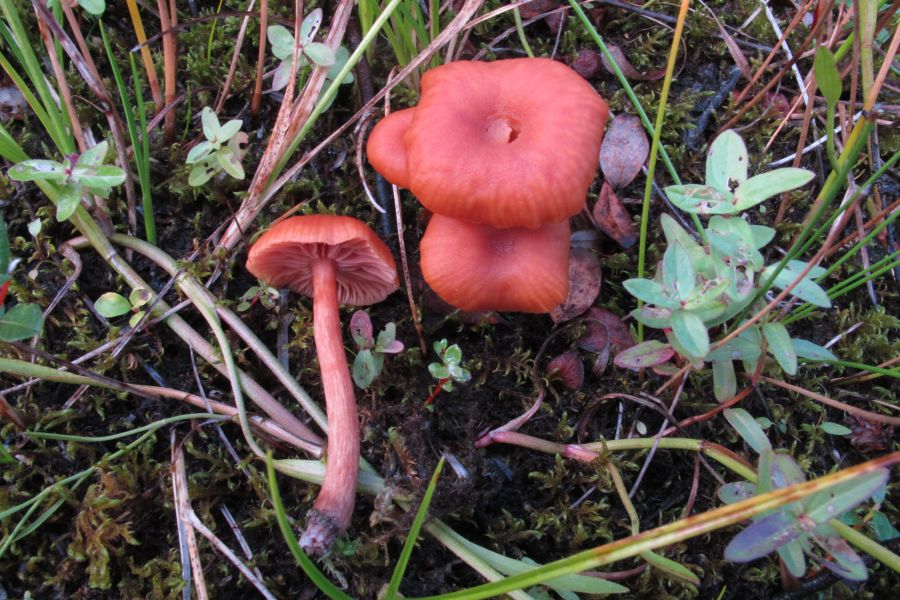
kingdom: Fungi
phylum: Basidiomycota
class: Agaricomycetes
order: Agaricales
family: Hydnangiaceae
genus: Laccaria
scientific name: Laccaria laccata
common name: rød ametysthat
